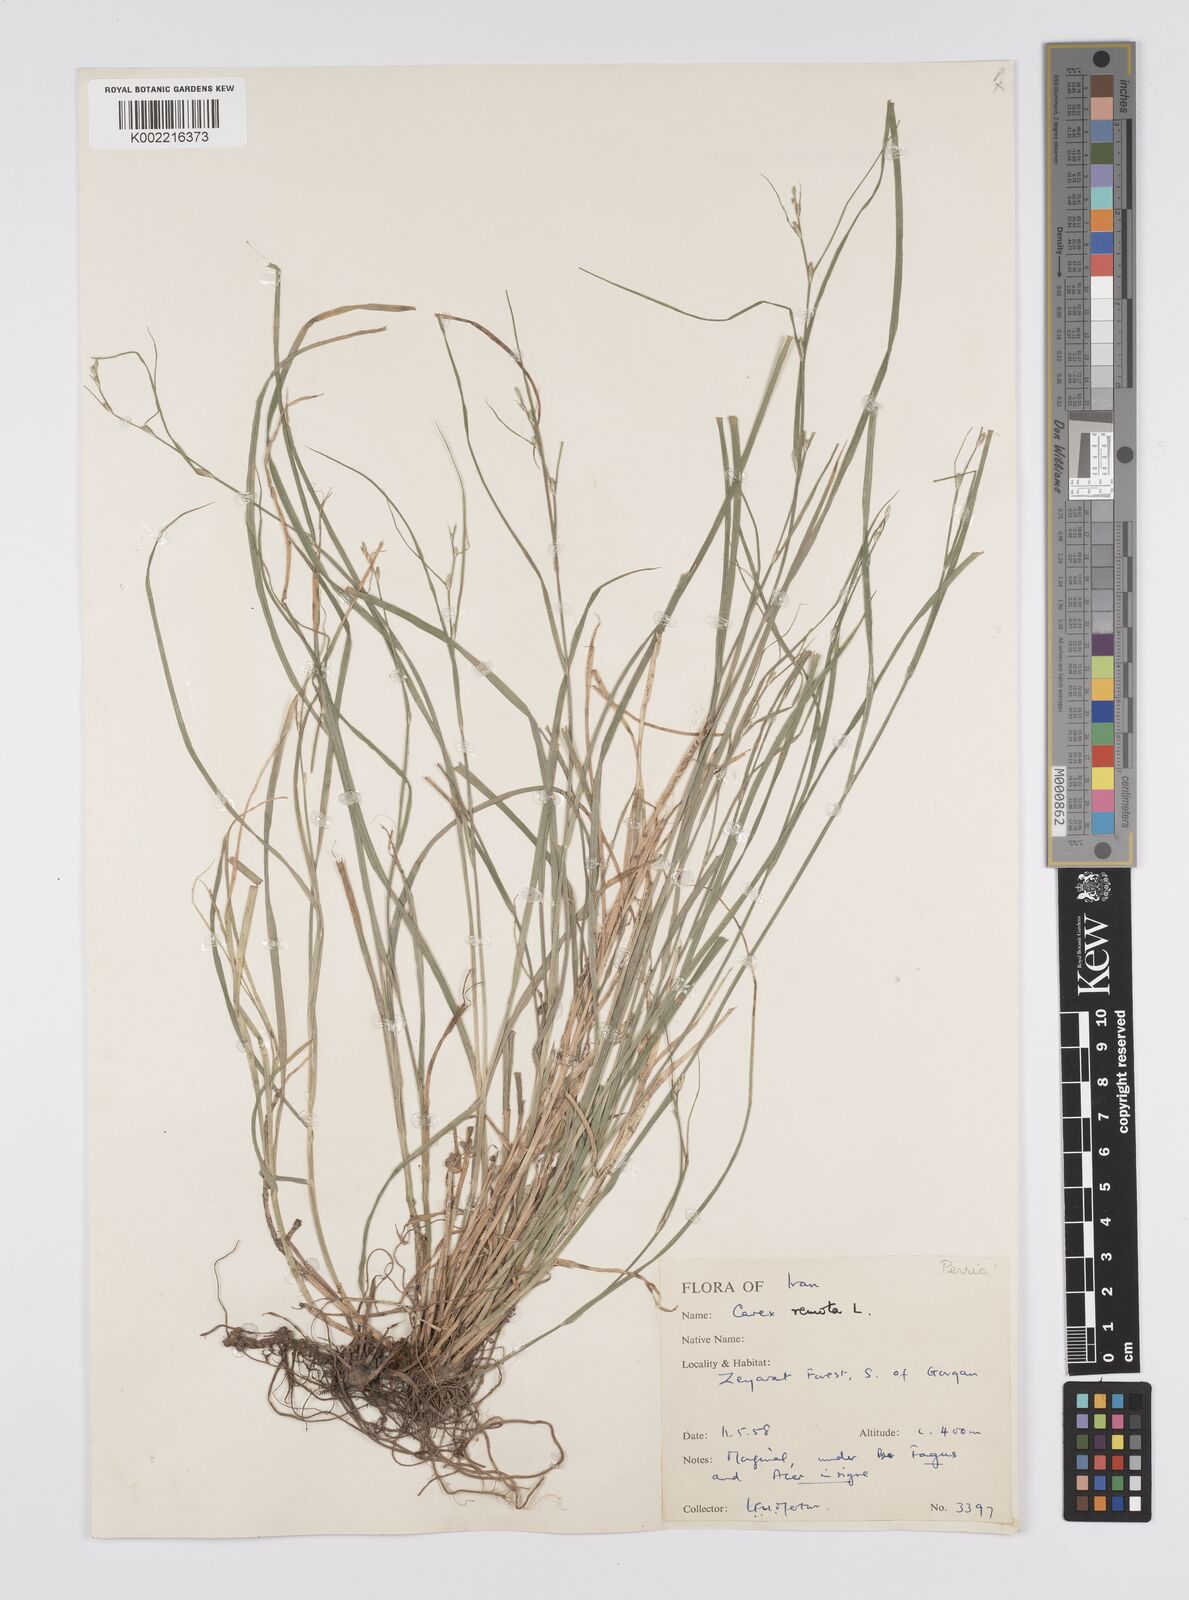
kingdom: Plantae
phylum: Tracheophyta
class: Liliopsida
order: Poales
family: Cyperaceae
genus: Carex
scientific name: Carex remota
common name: Remote sedge
